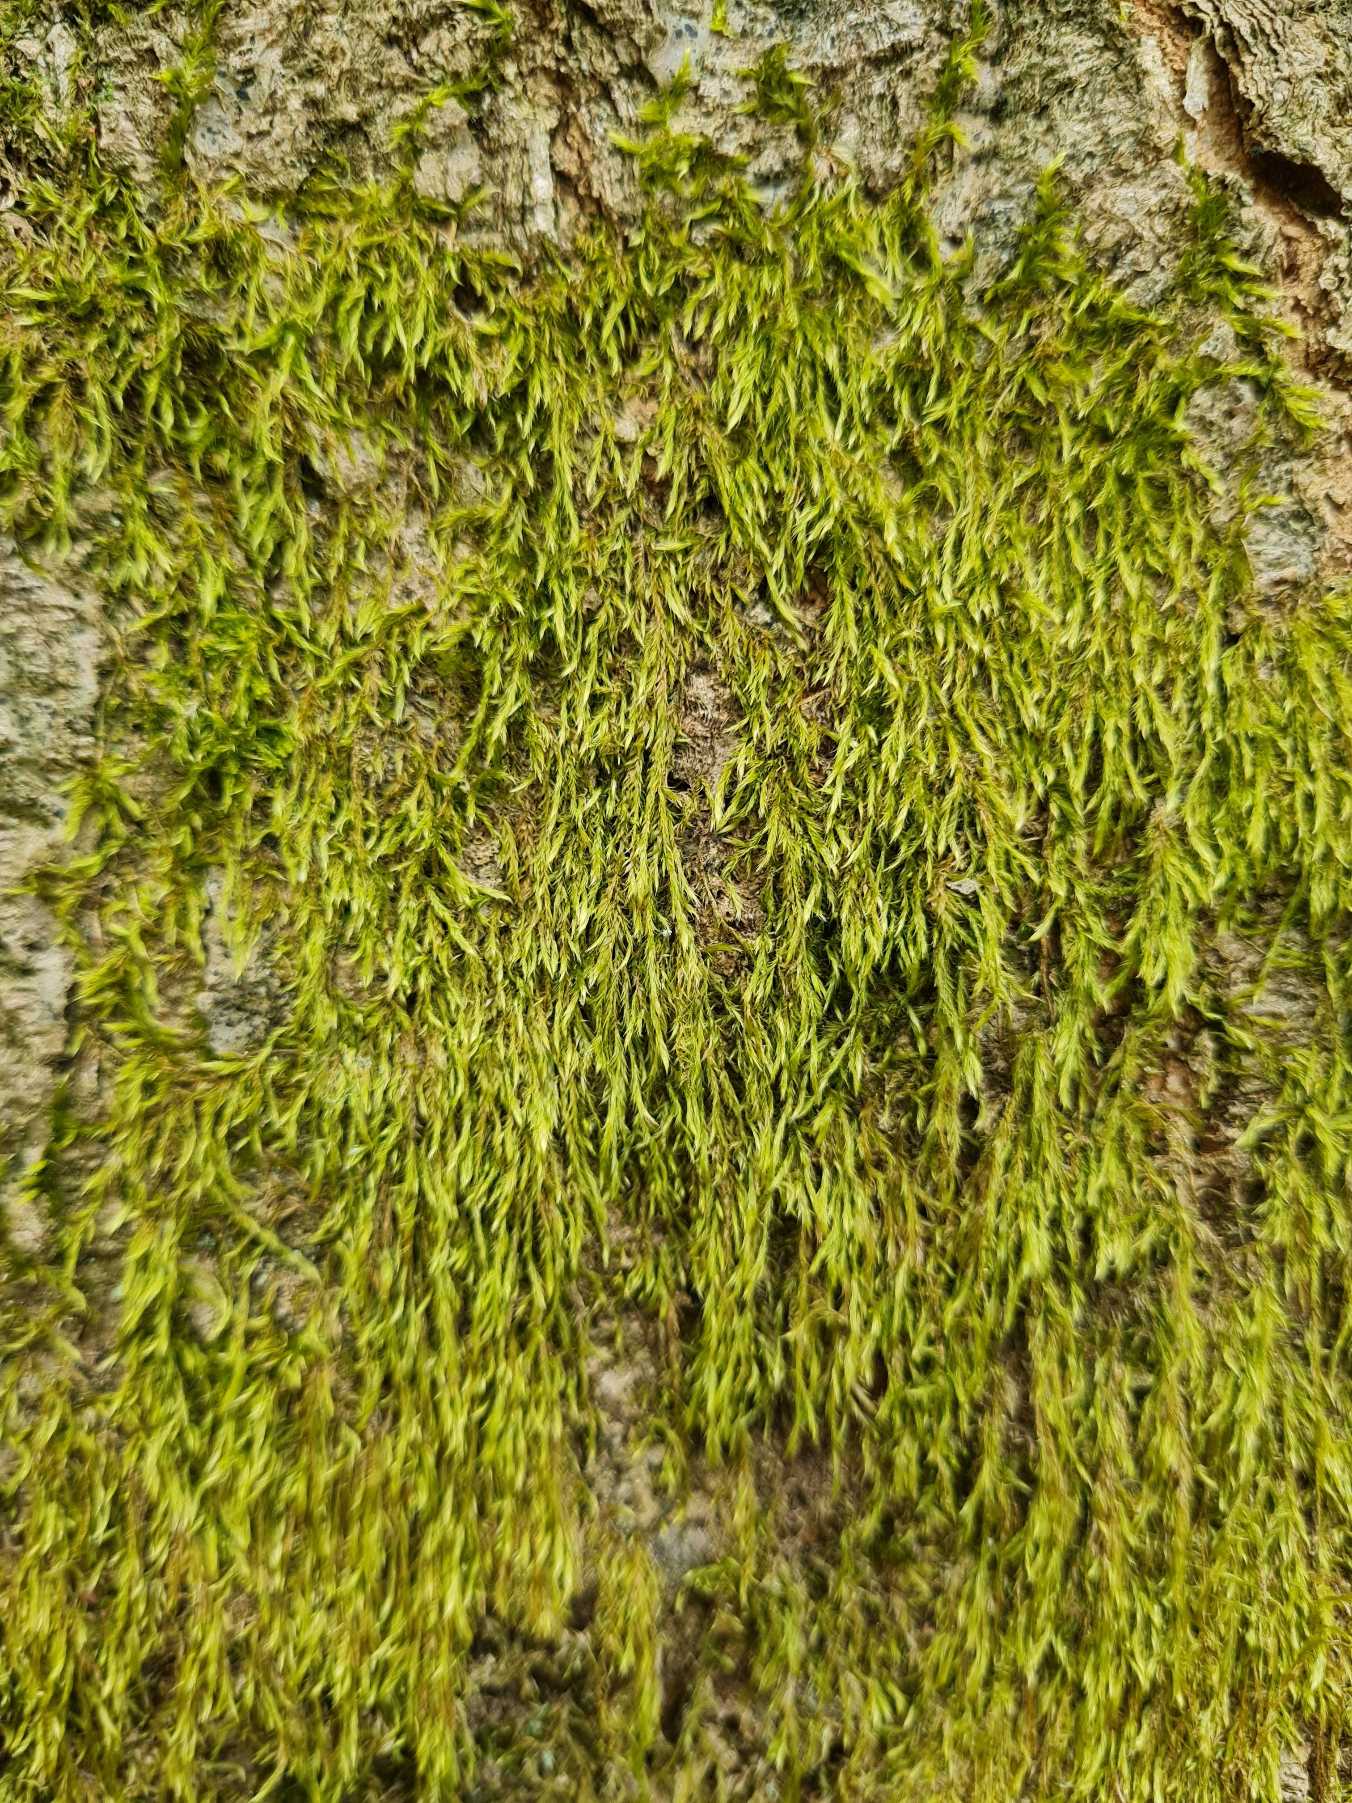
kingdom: Plantae
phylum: Bryophyta
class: Bryopsida
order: Hypnales
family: Hypnaceae
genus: Hypnum
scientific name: Hypnum
